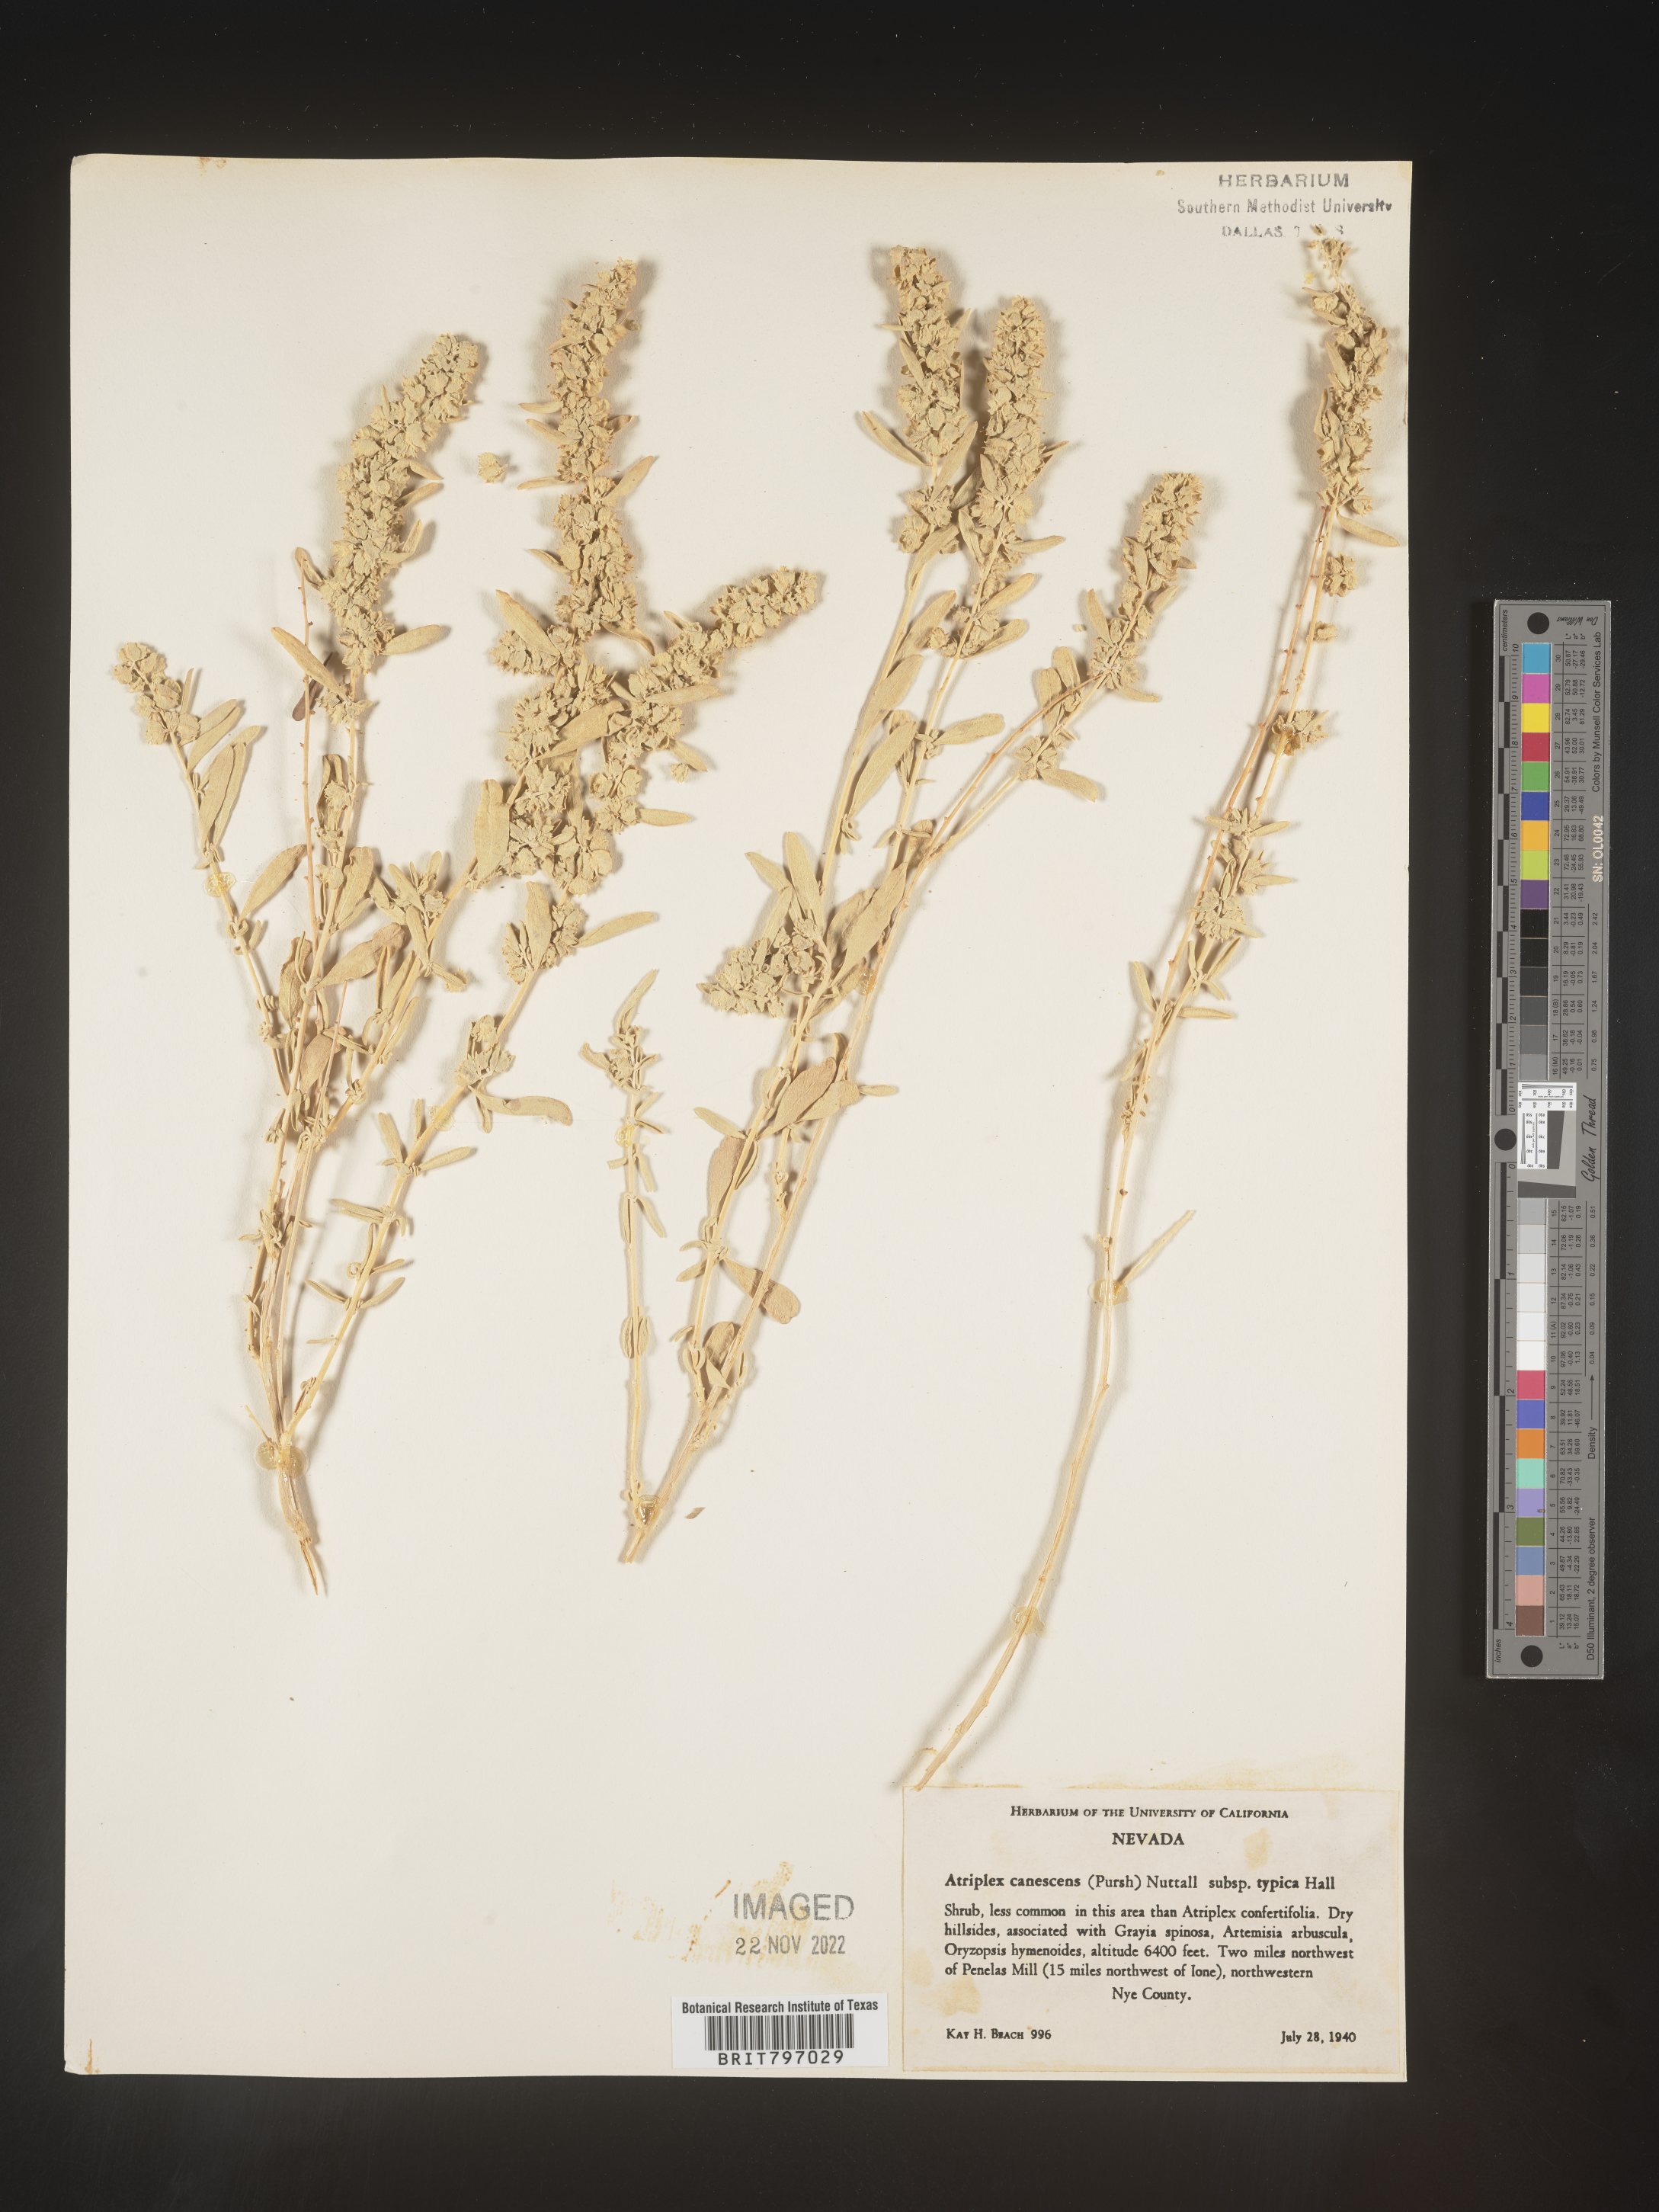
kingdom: Plantae
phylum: Tracheophyta
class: Magnoliopsida
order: Caryophyllales
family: Amaranthaceae
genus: Atriplex
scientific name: Atriplex canescens
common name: Four-wing saltbush
